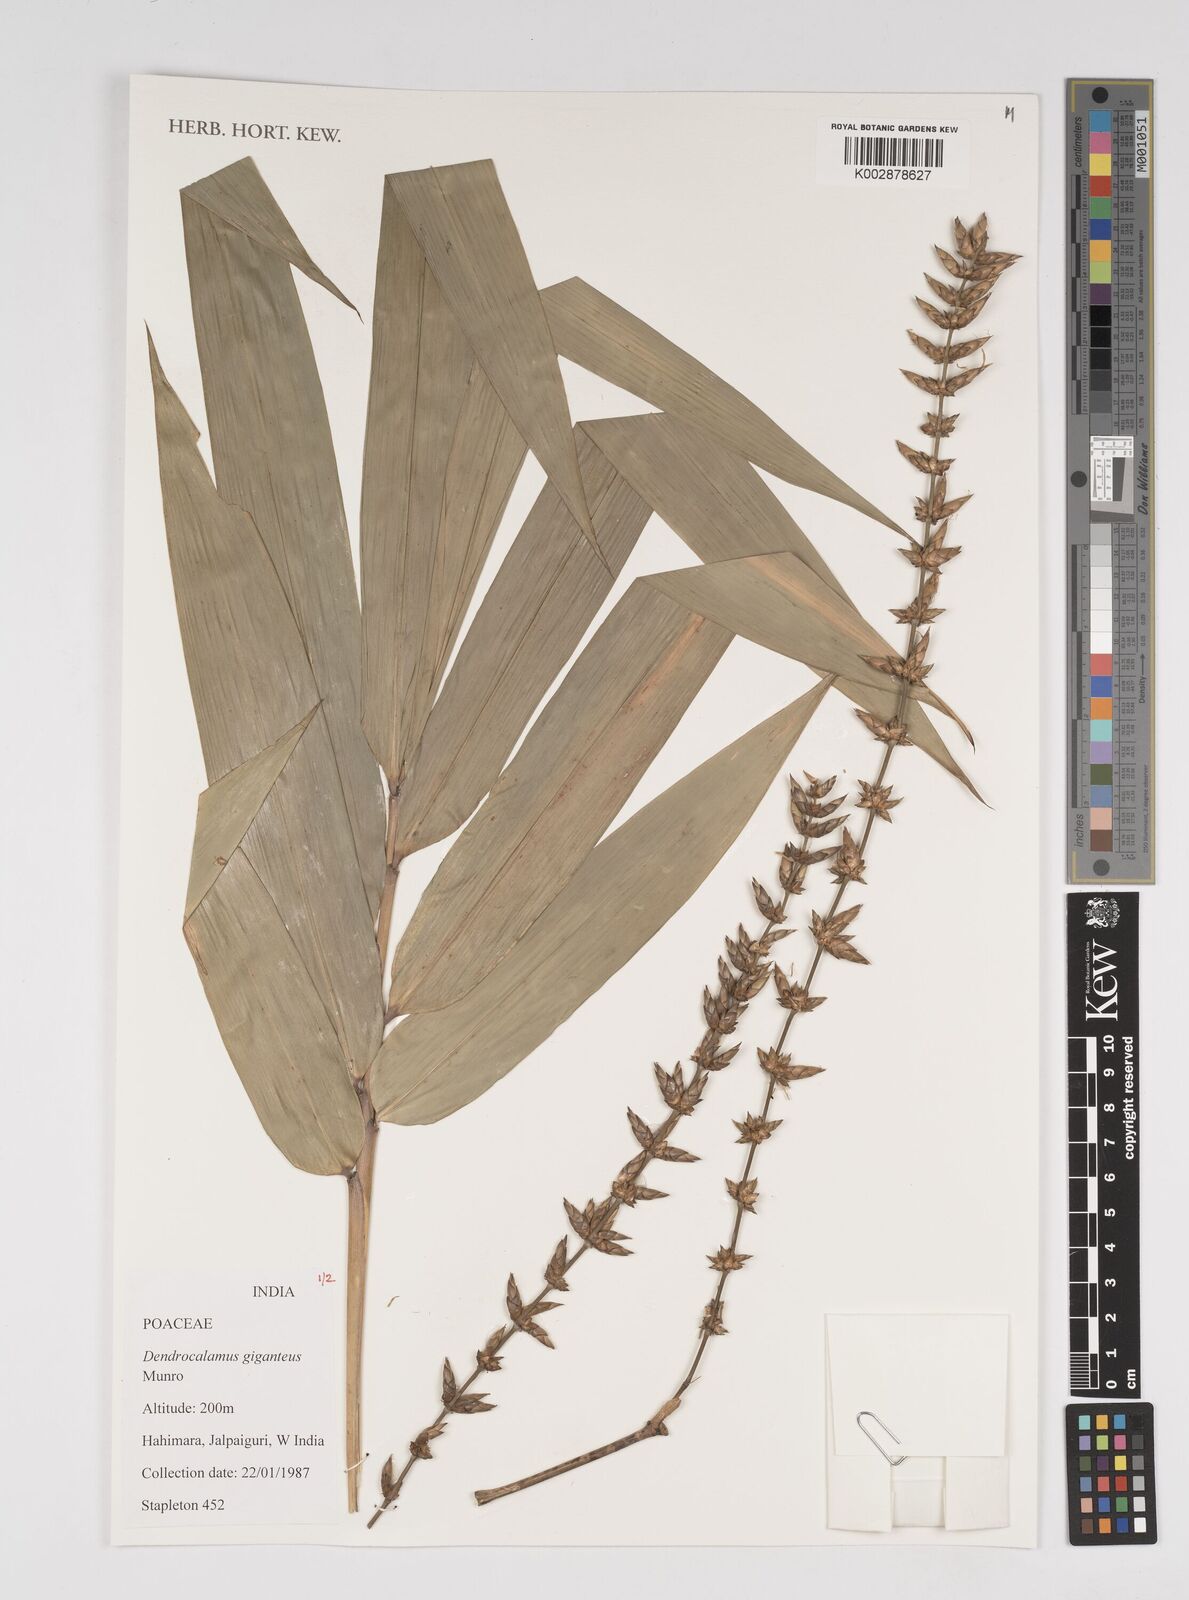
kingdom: Plantae
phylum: Tracheophyta
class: Liliopsida
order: Poales
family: Poaceae
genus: Dendrocalamus
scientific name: Dendrocalamus giganteus
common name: Giant bamboo
